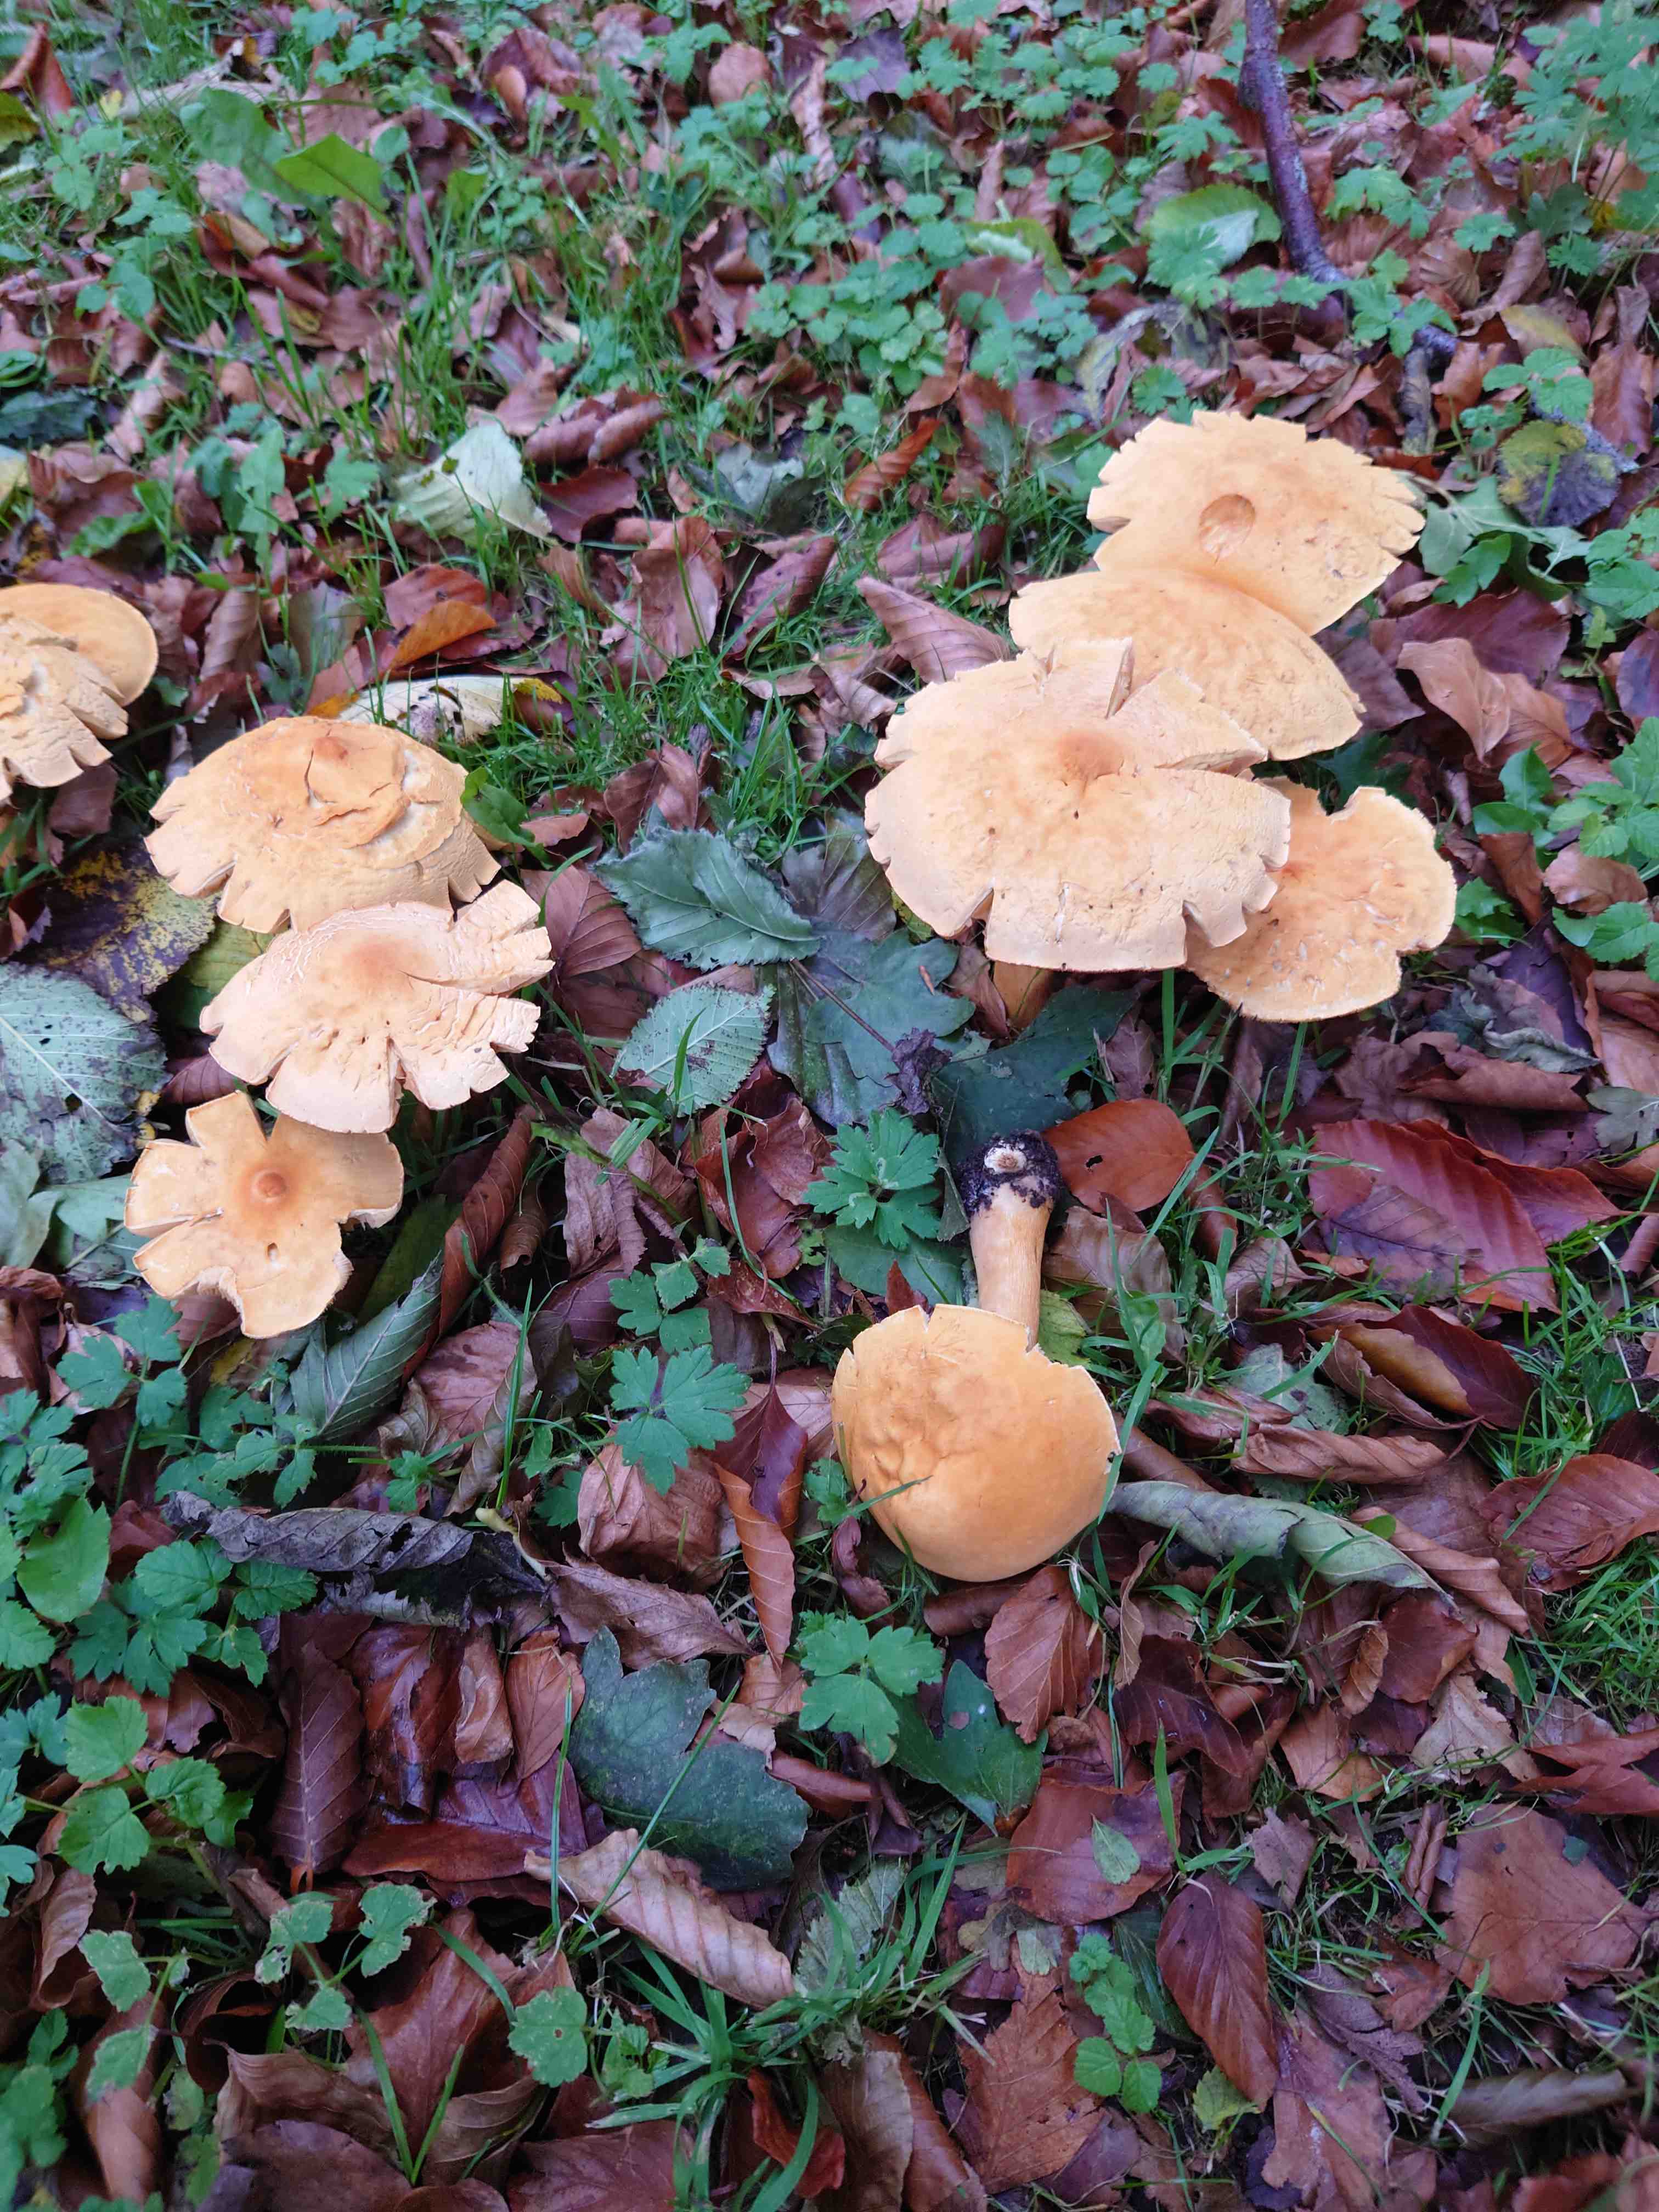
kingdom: Fungi
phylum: Basidiomycota
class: Agaricomycetes
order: Agaricales
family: Tricholomataceae
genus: Phaeolepiota
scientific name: Phaeolepiota aurea
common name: gyldenhat
